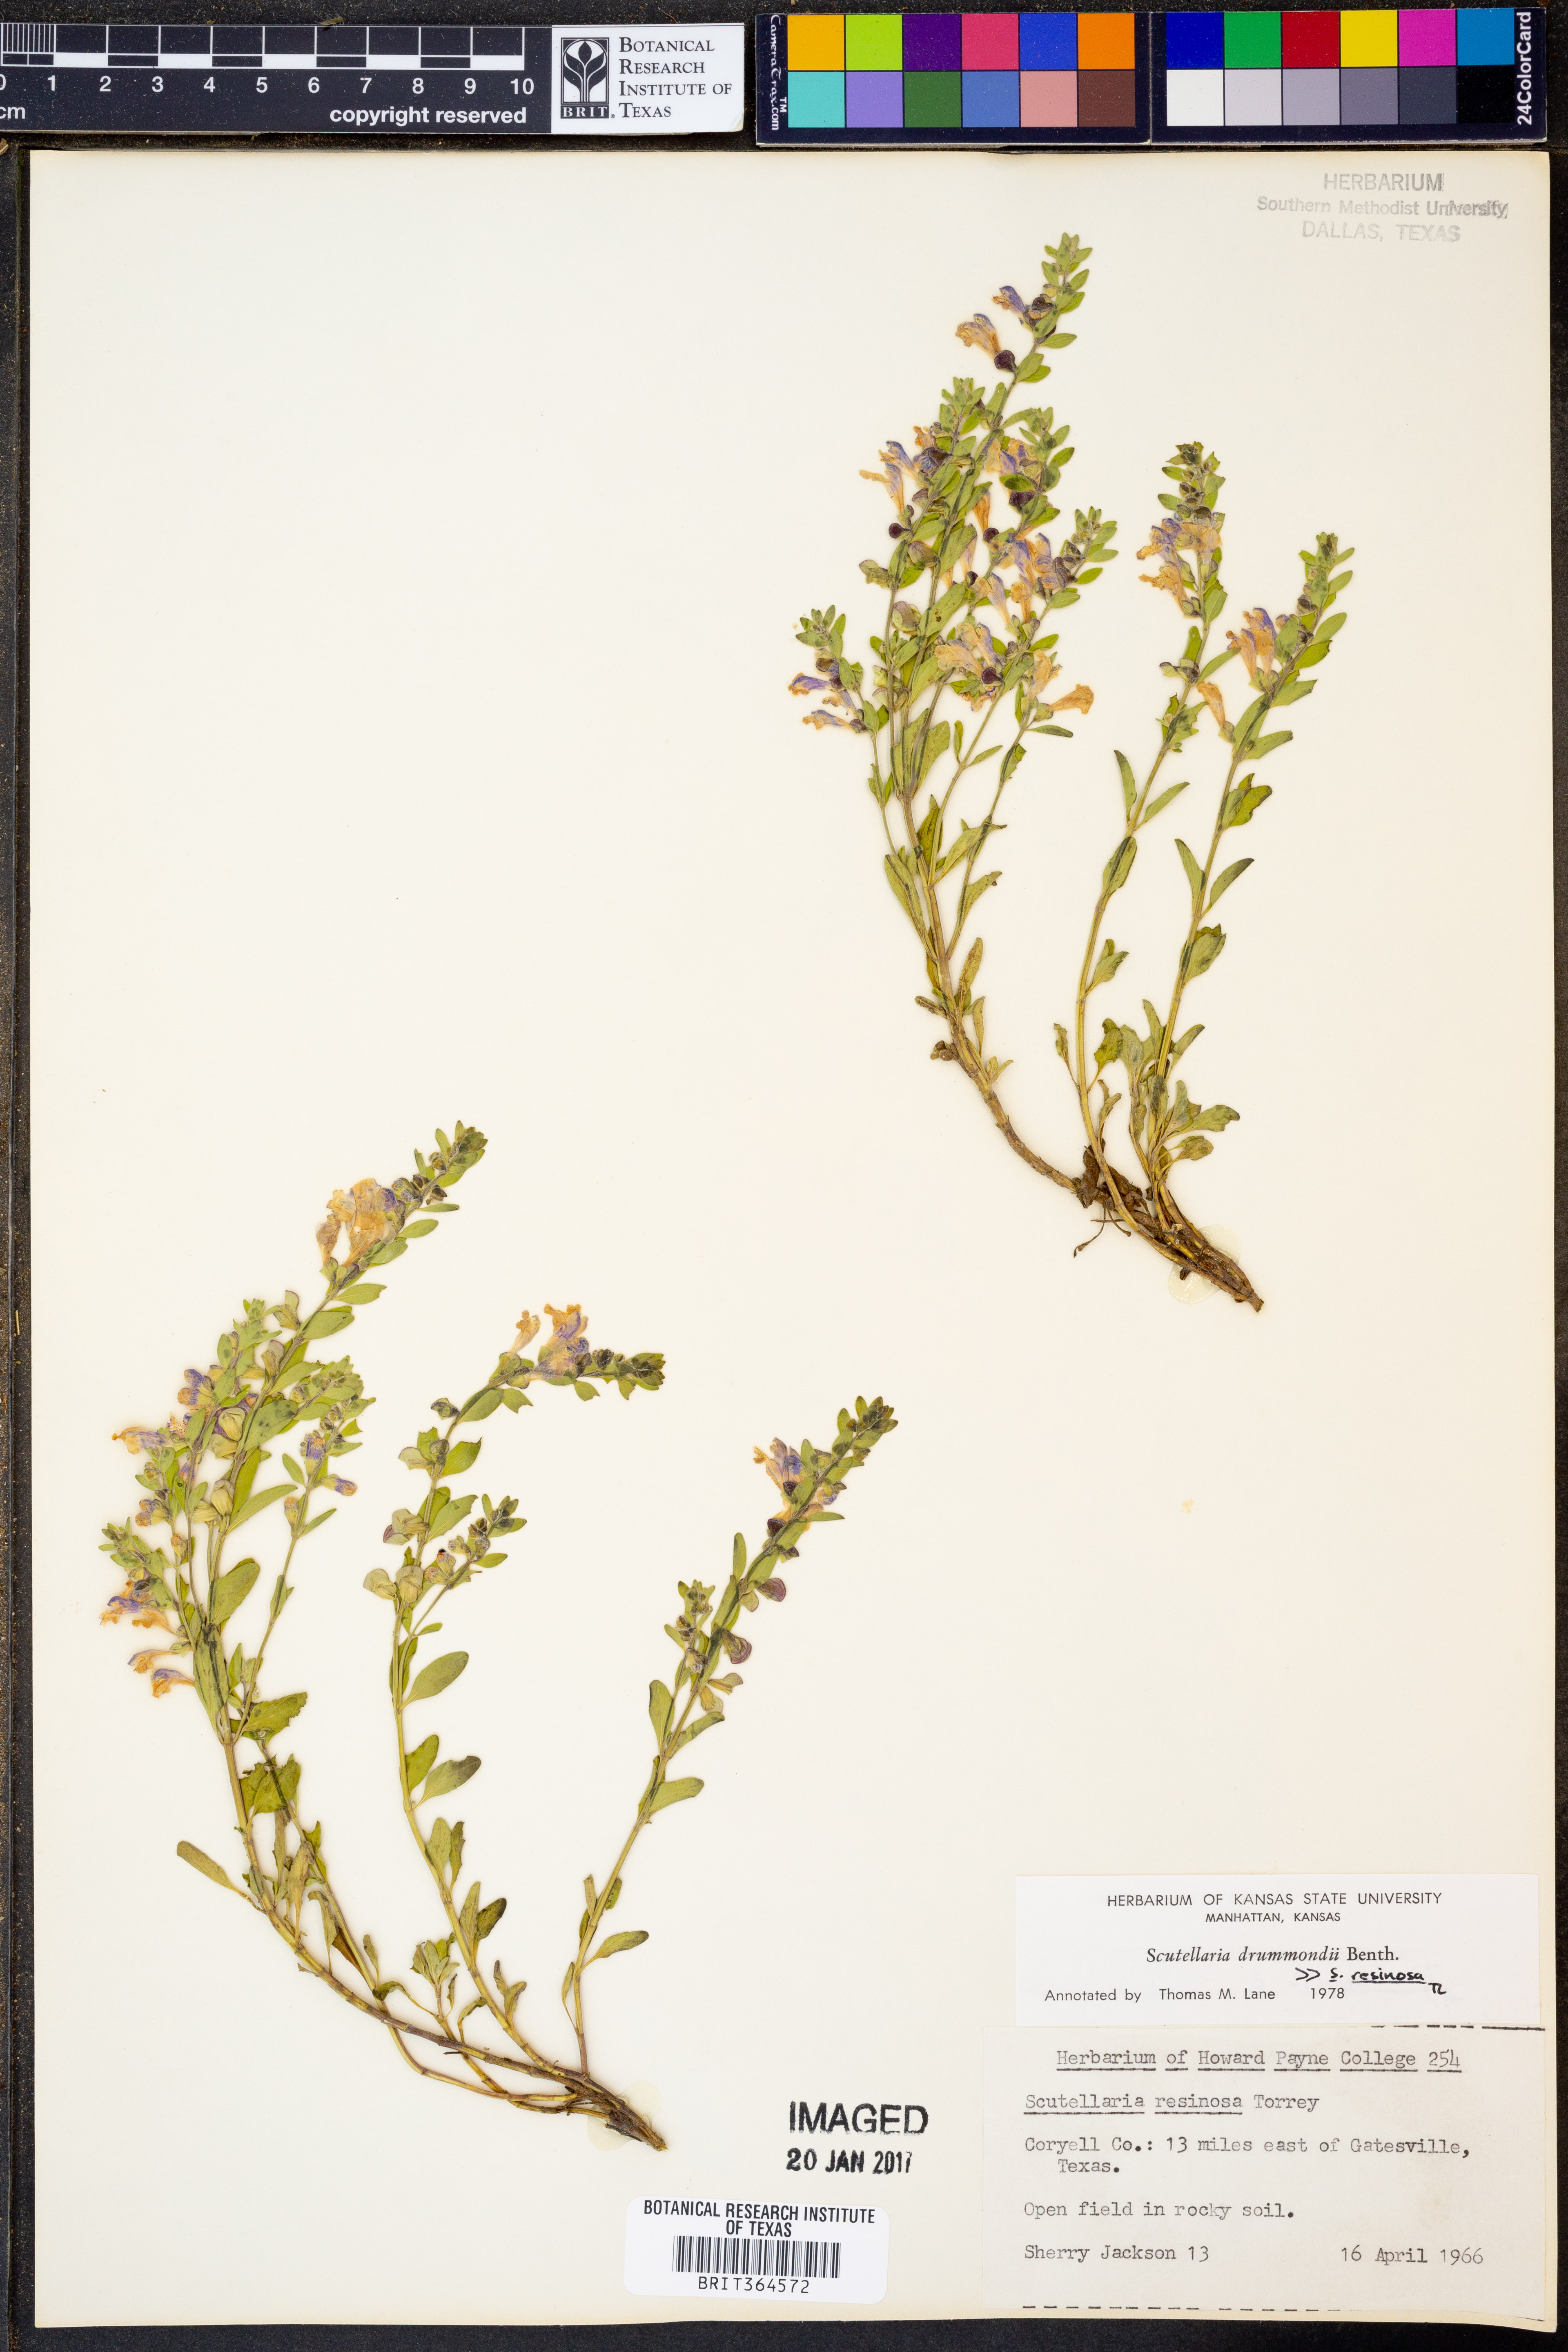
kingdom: Plantae
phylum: Tracheophyta
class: Magnoliopsida
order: Lamiales
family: Lamiaceae
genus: Scutellaria
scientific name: Scutellaria resinosa
